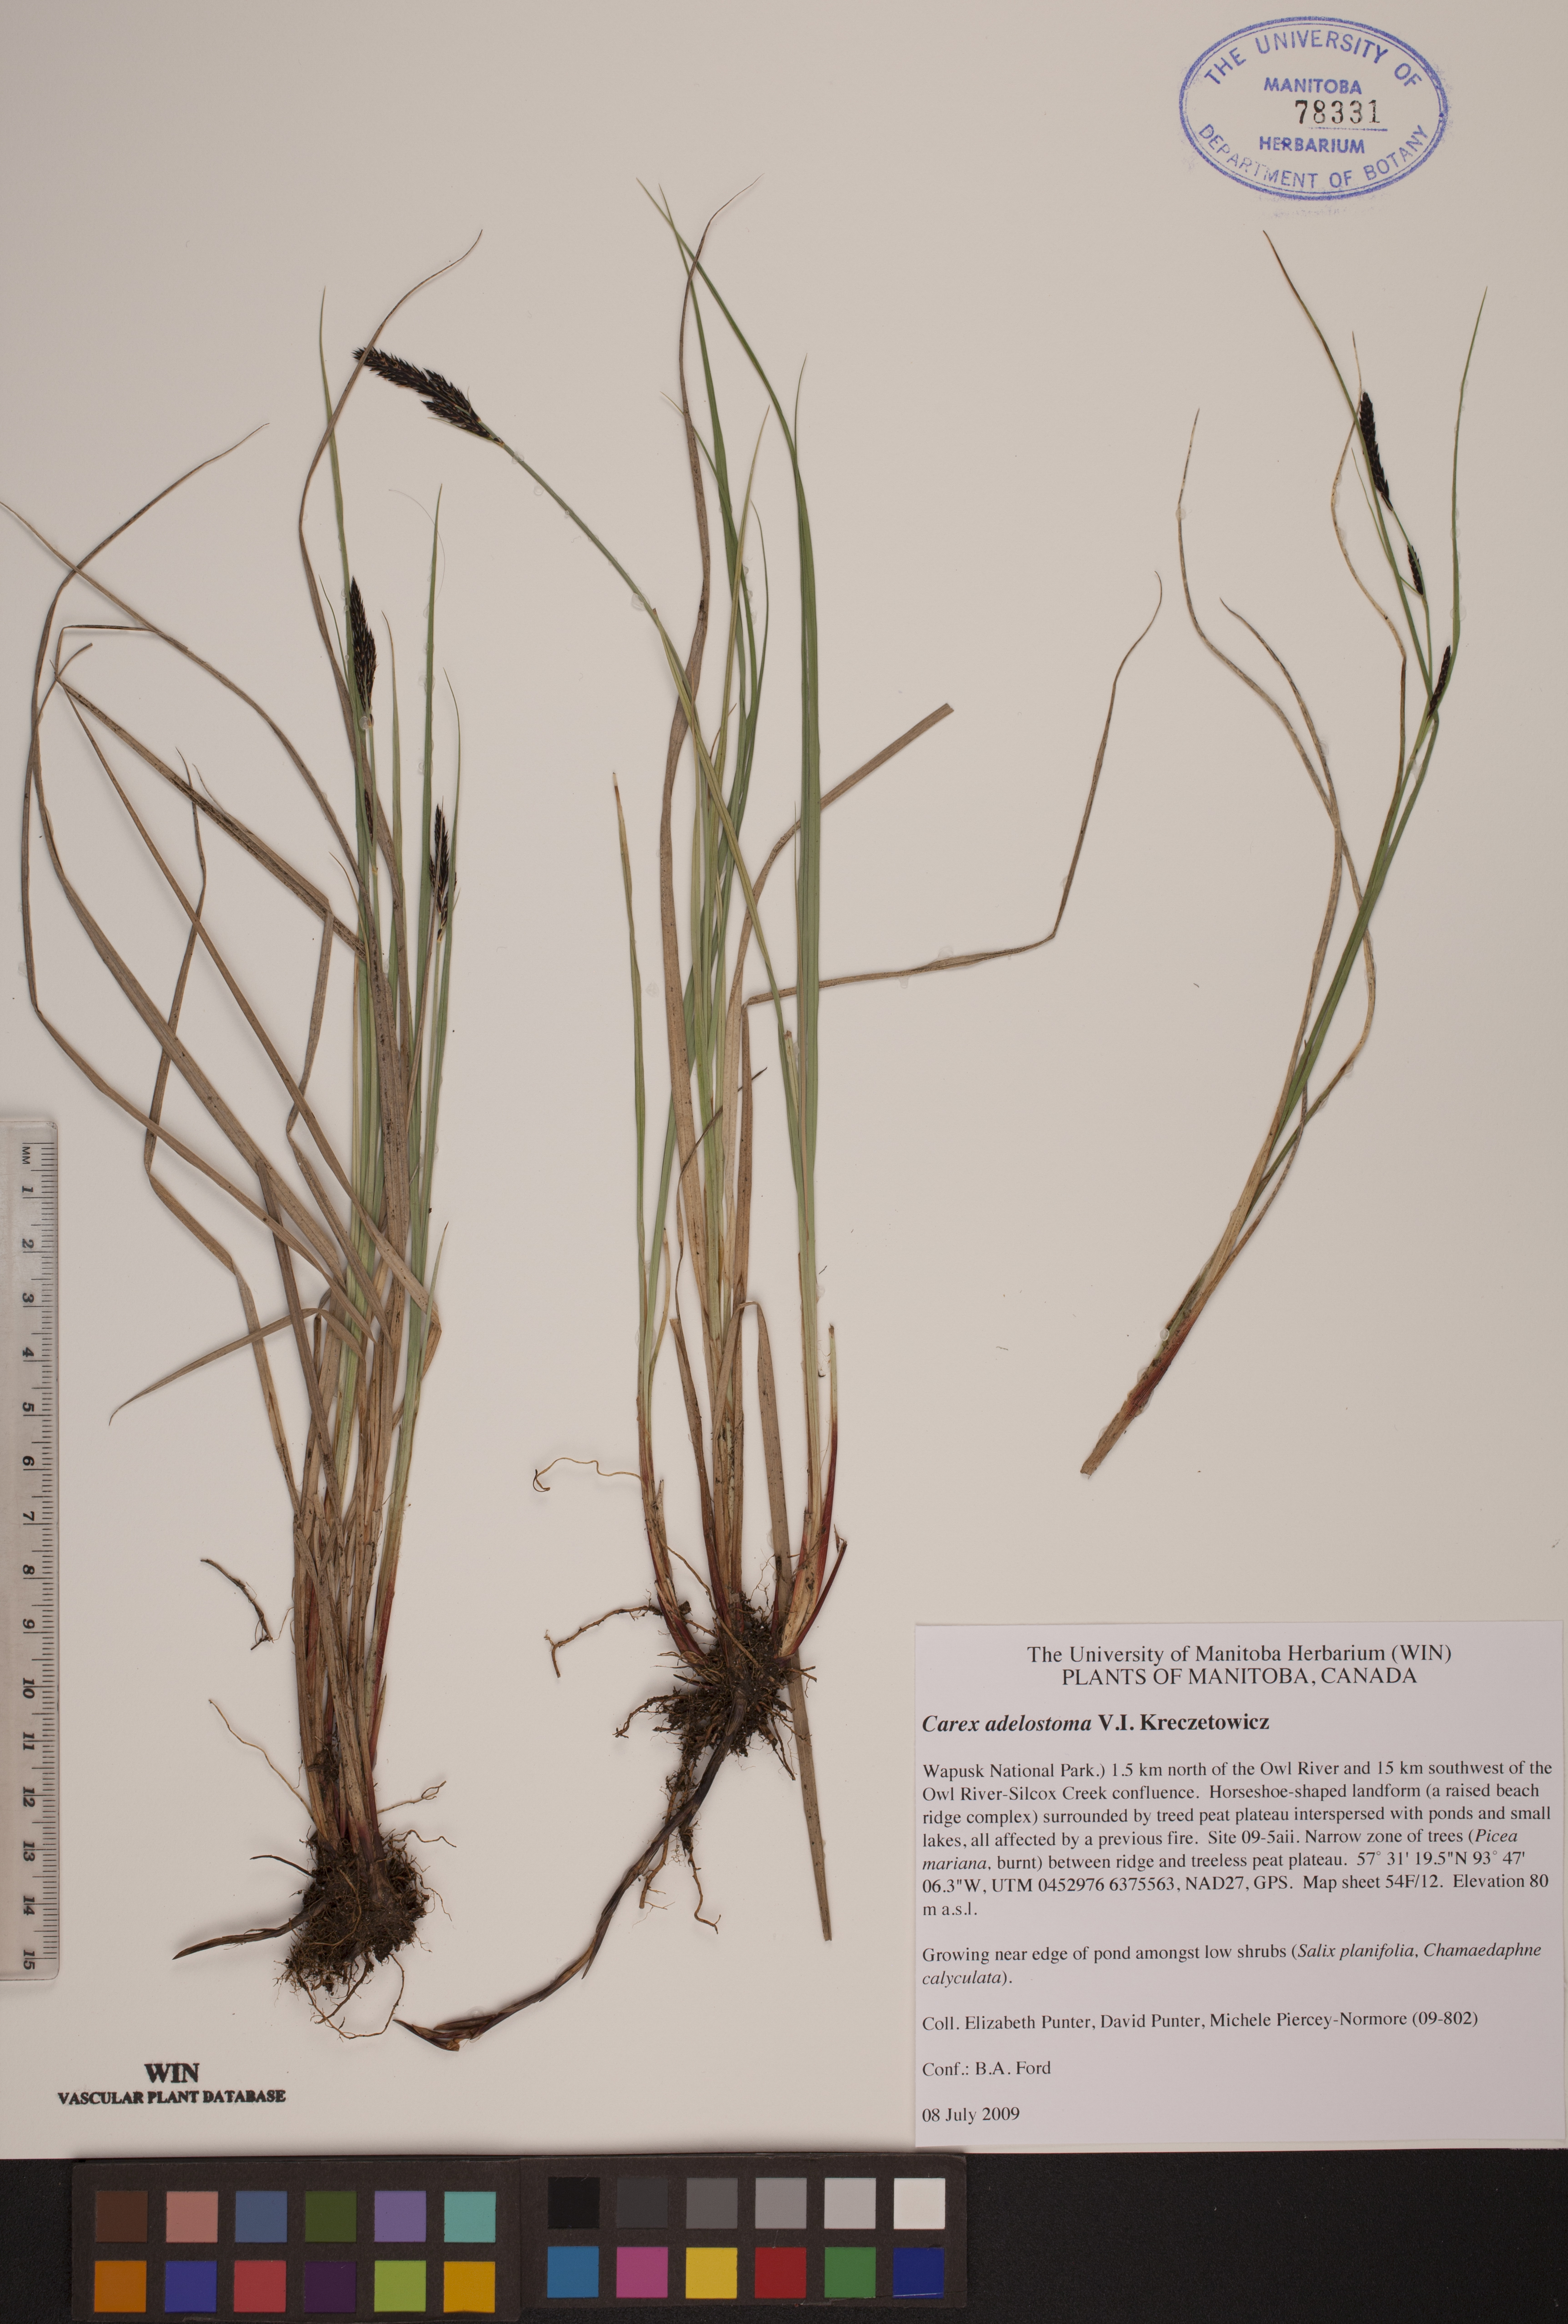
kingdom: Plantae
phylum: Tracheophyta
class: Liliopsida
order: Poales
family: Cyperaceae
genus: Carex
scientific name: Carex adelostoma
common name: Circumpolar sedge
